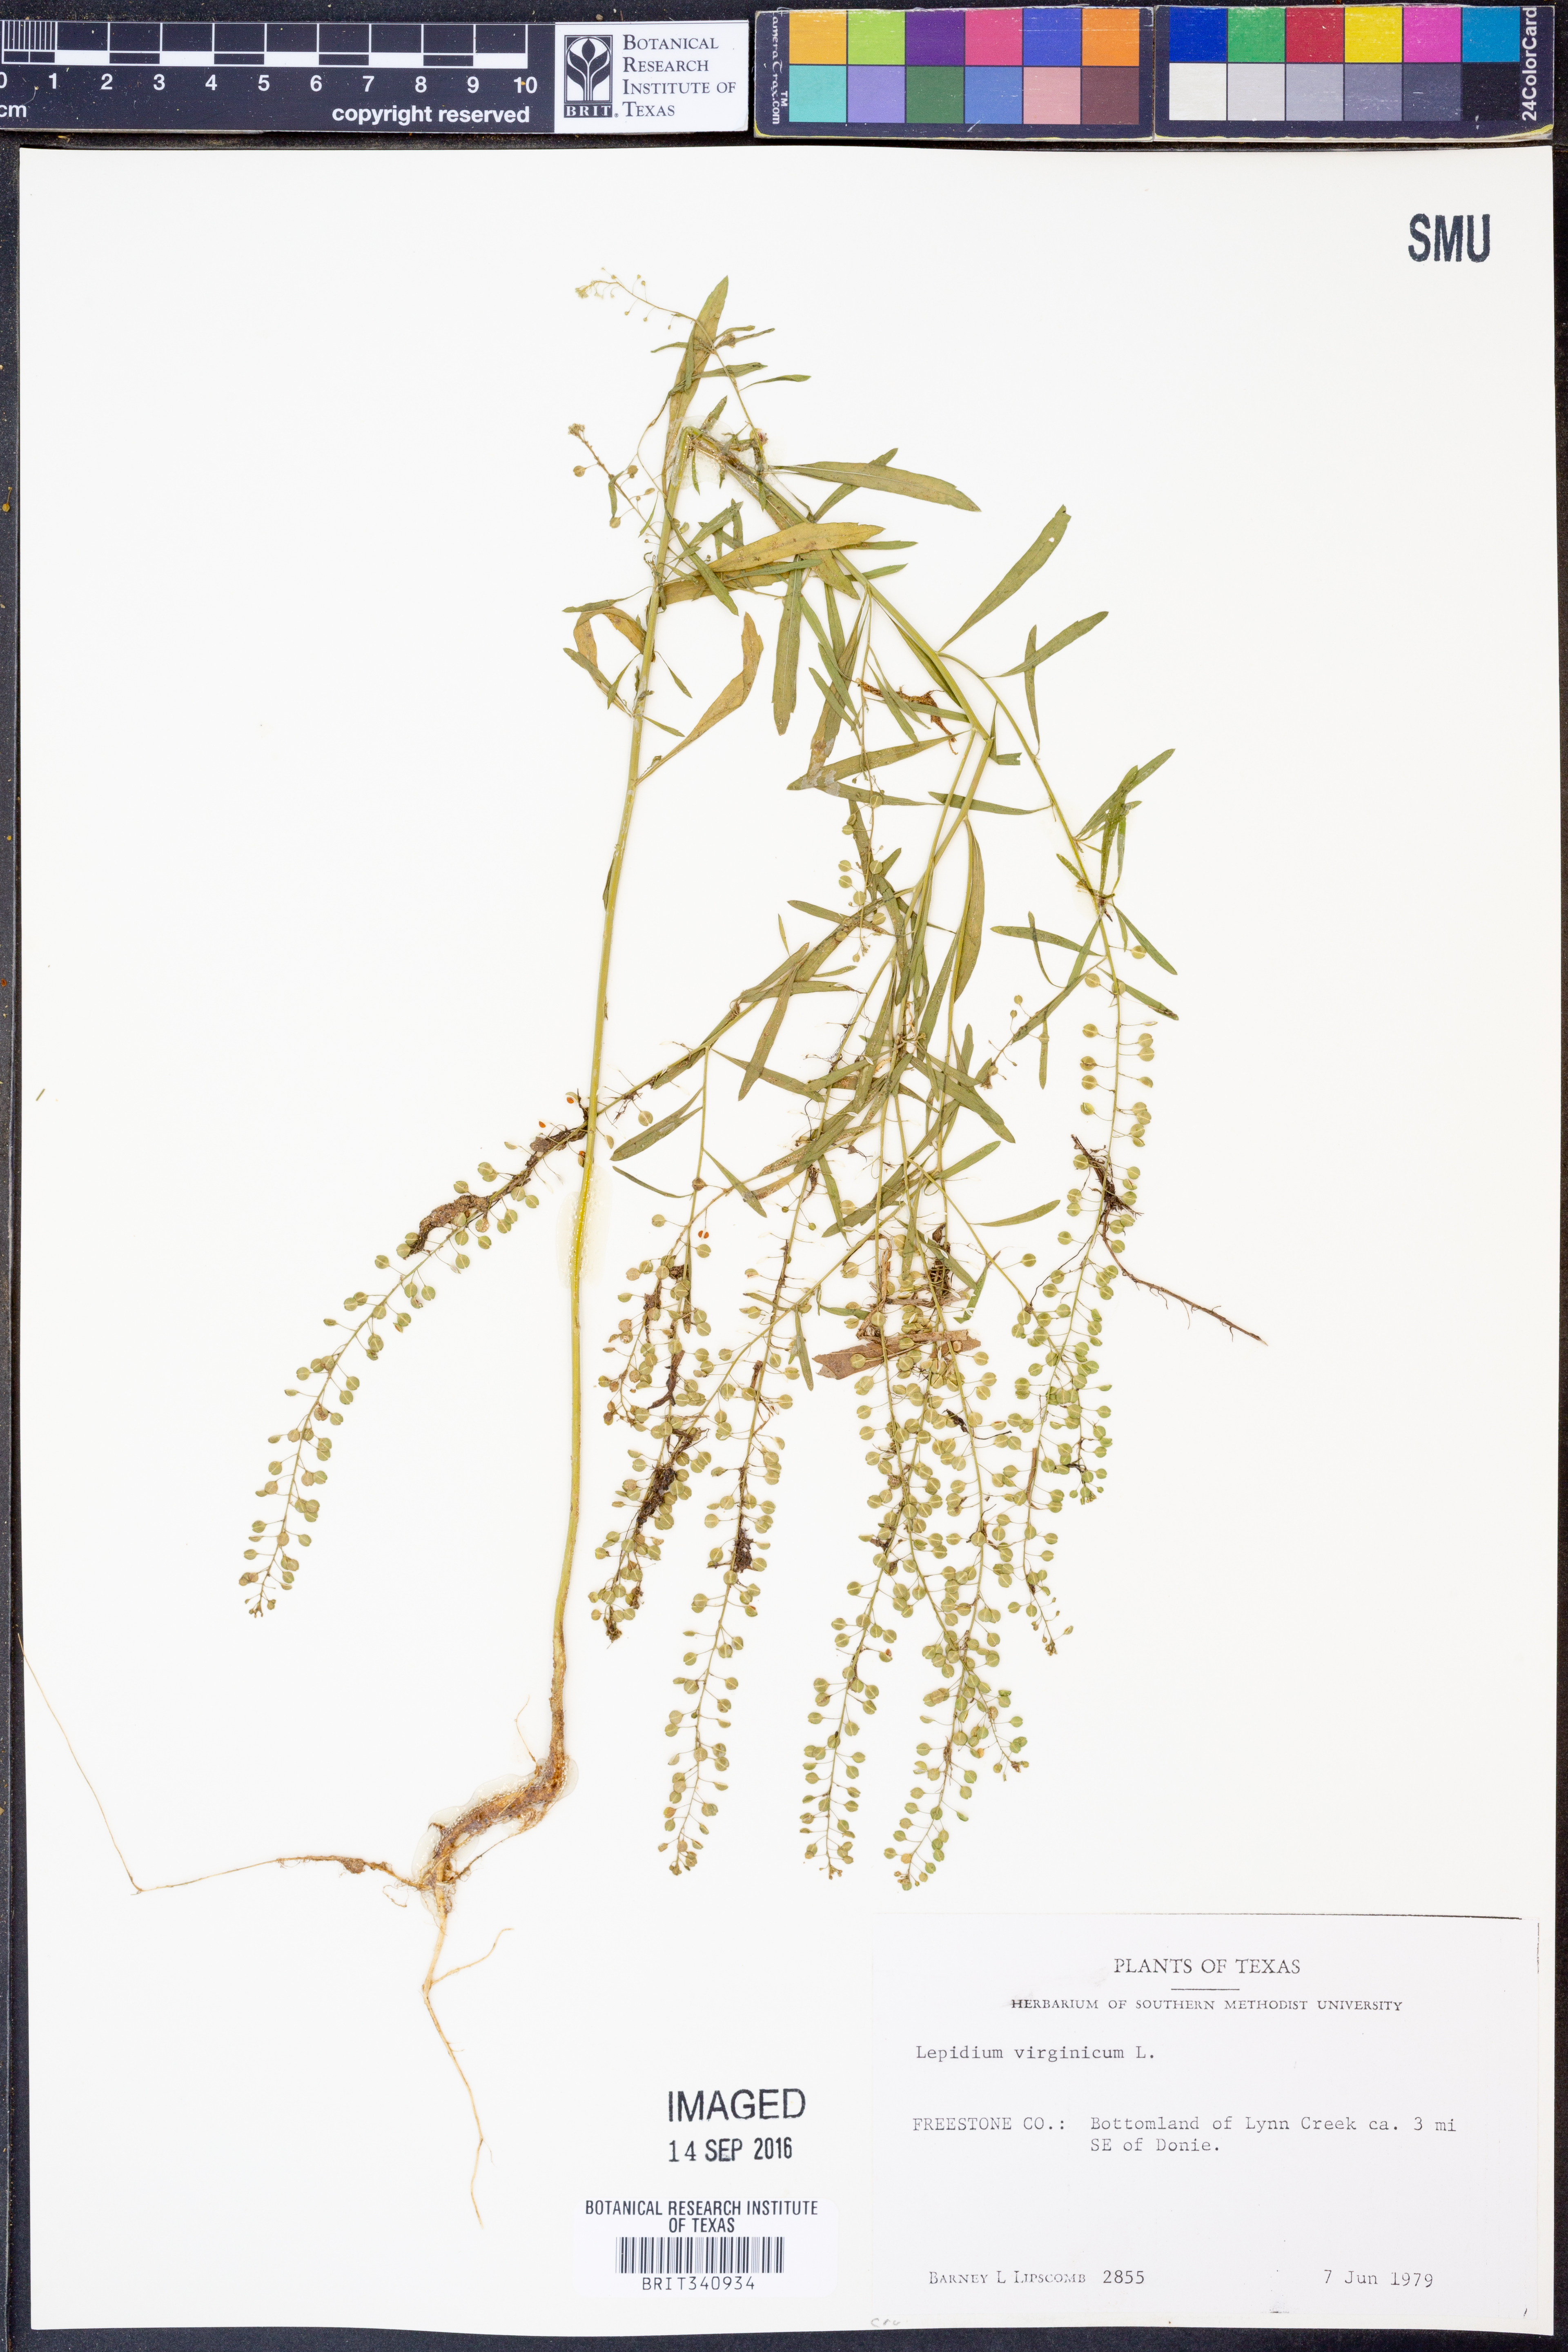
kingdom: Plantae
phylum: Tracheophyta
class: Magnoliopsida
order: Brassicales
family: Brassicaceae
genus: Lepidium
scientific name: Lepidium virginicum
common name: Least pepperwort
